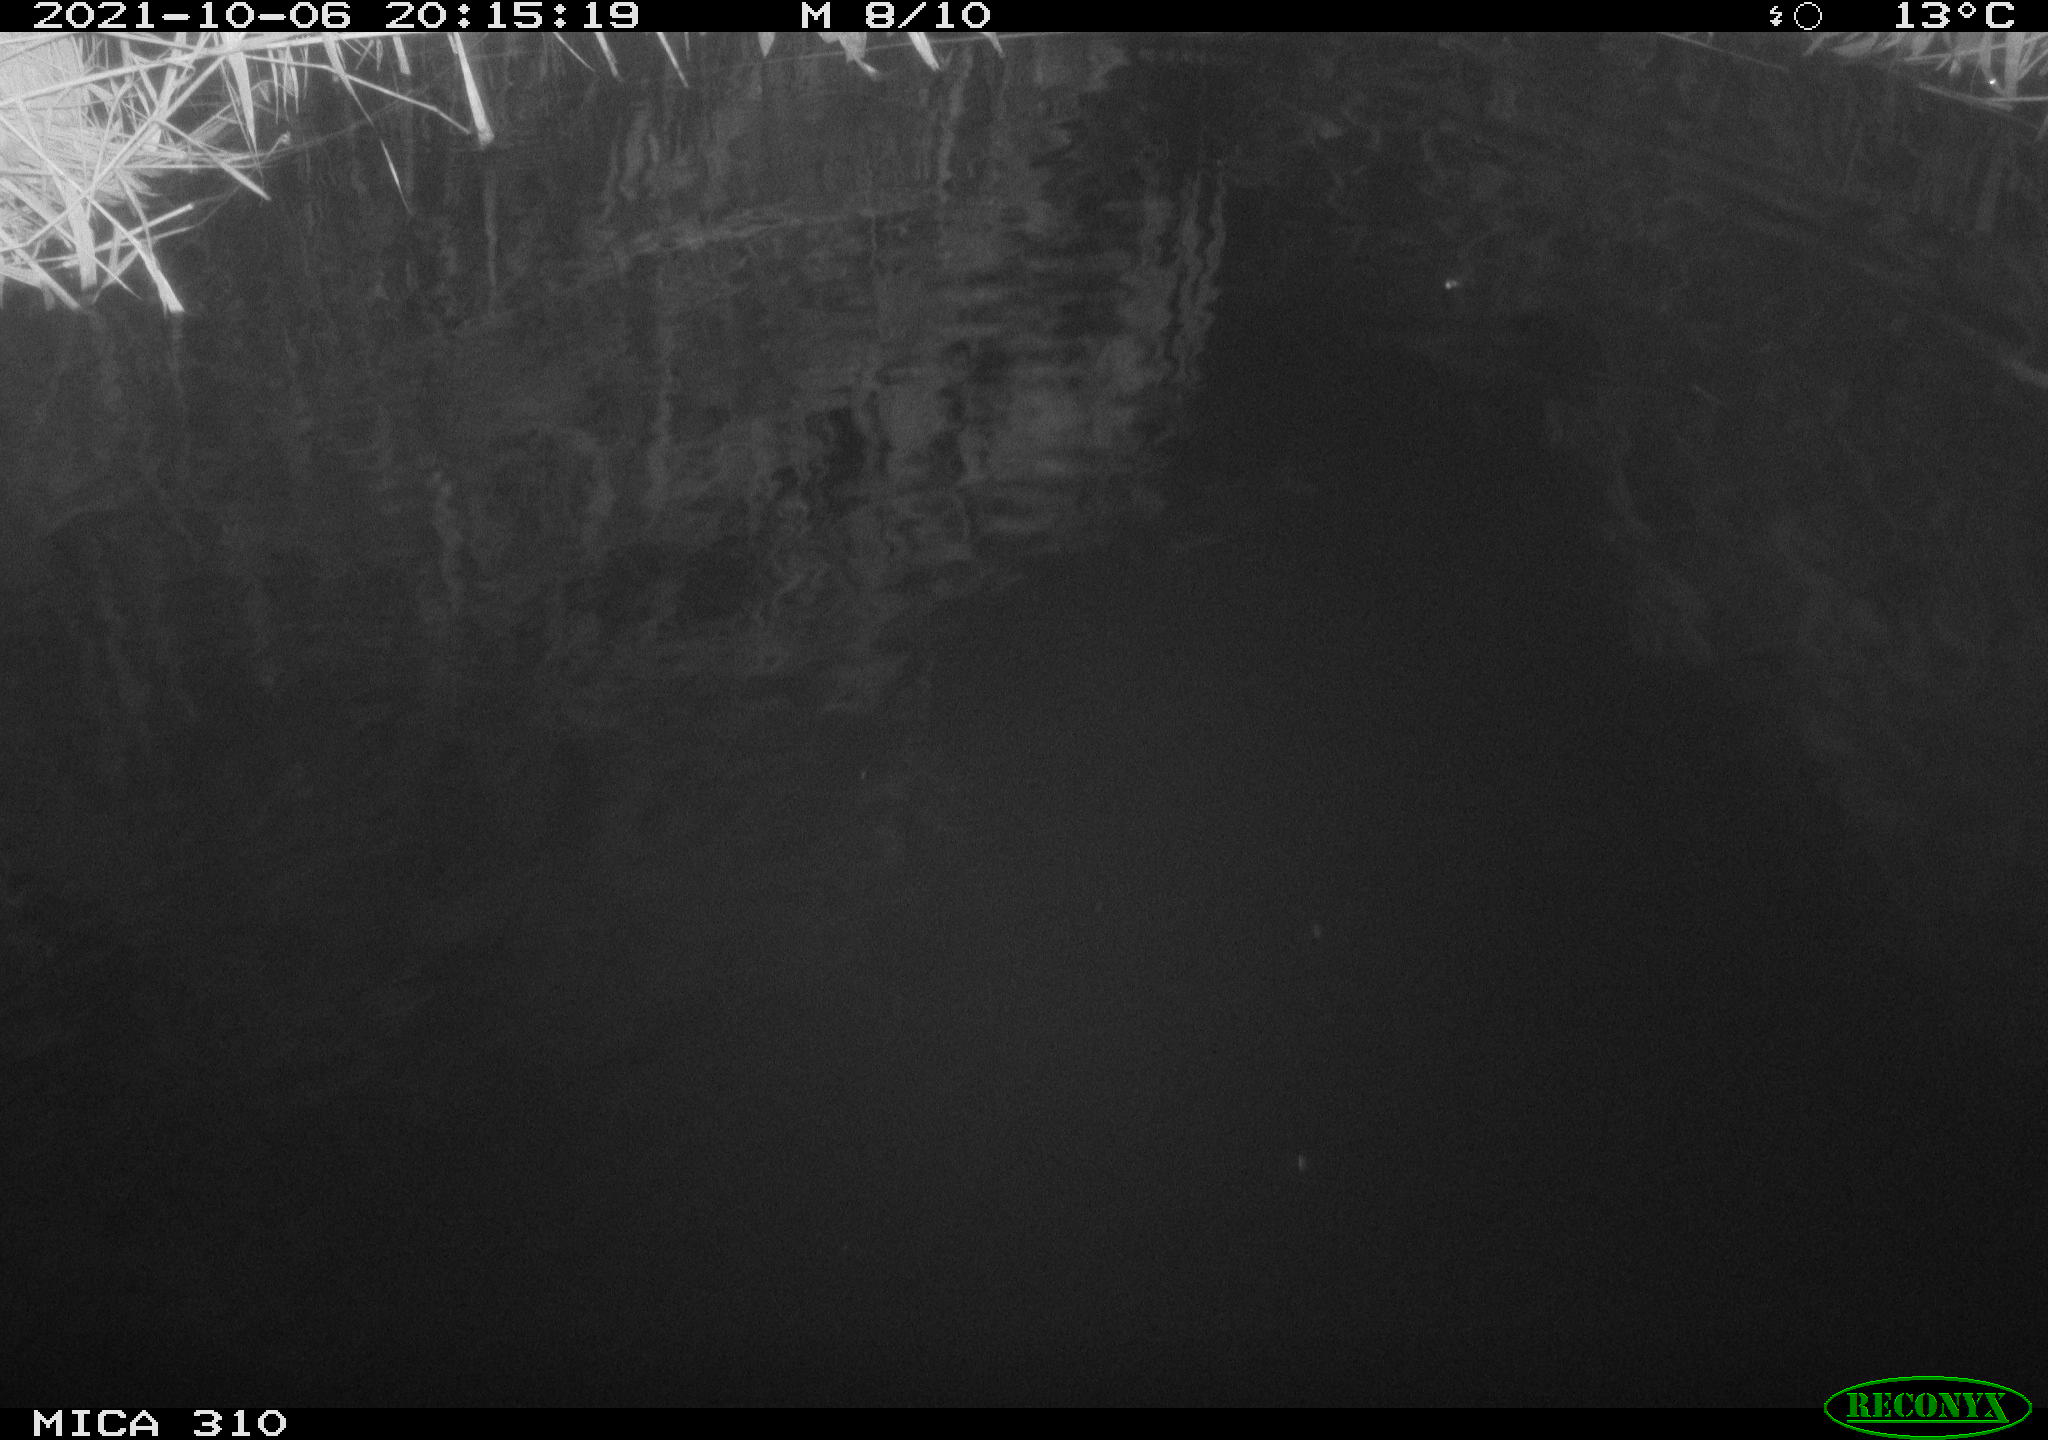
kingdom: Animalia
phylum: Chordata
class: Mammalia
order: Rodentia
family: Muridae
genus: Rattus
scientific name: Rattus norvegicus
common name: Brown rat
